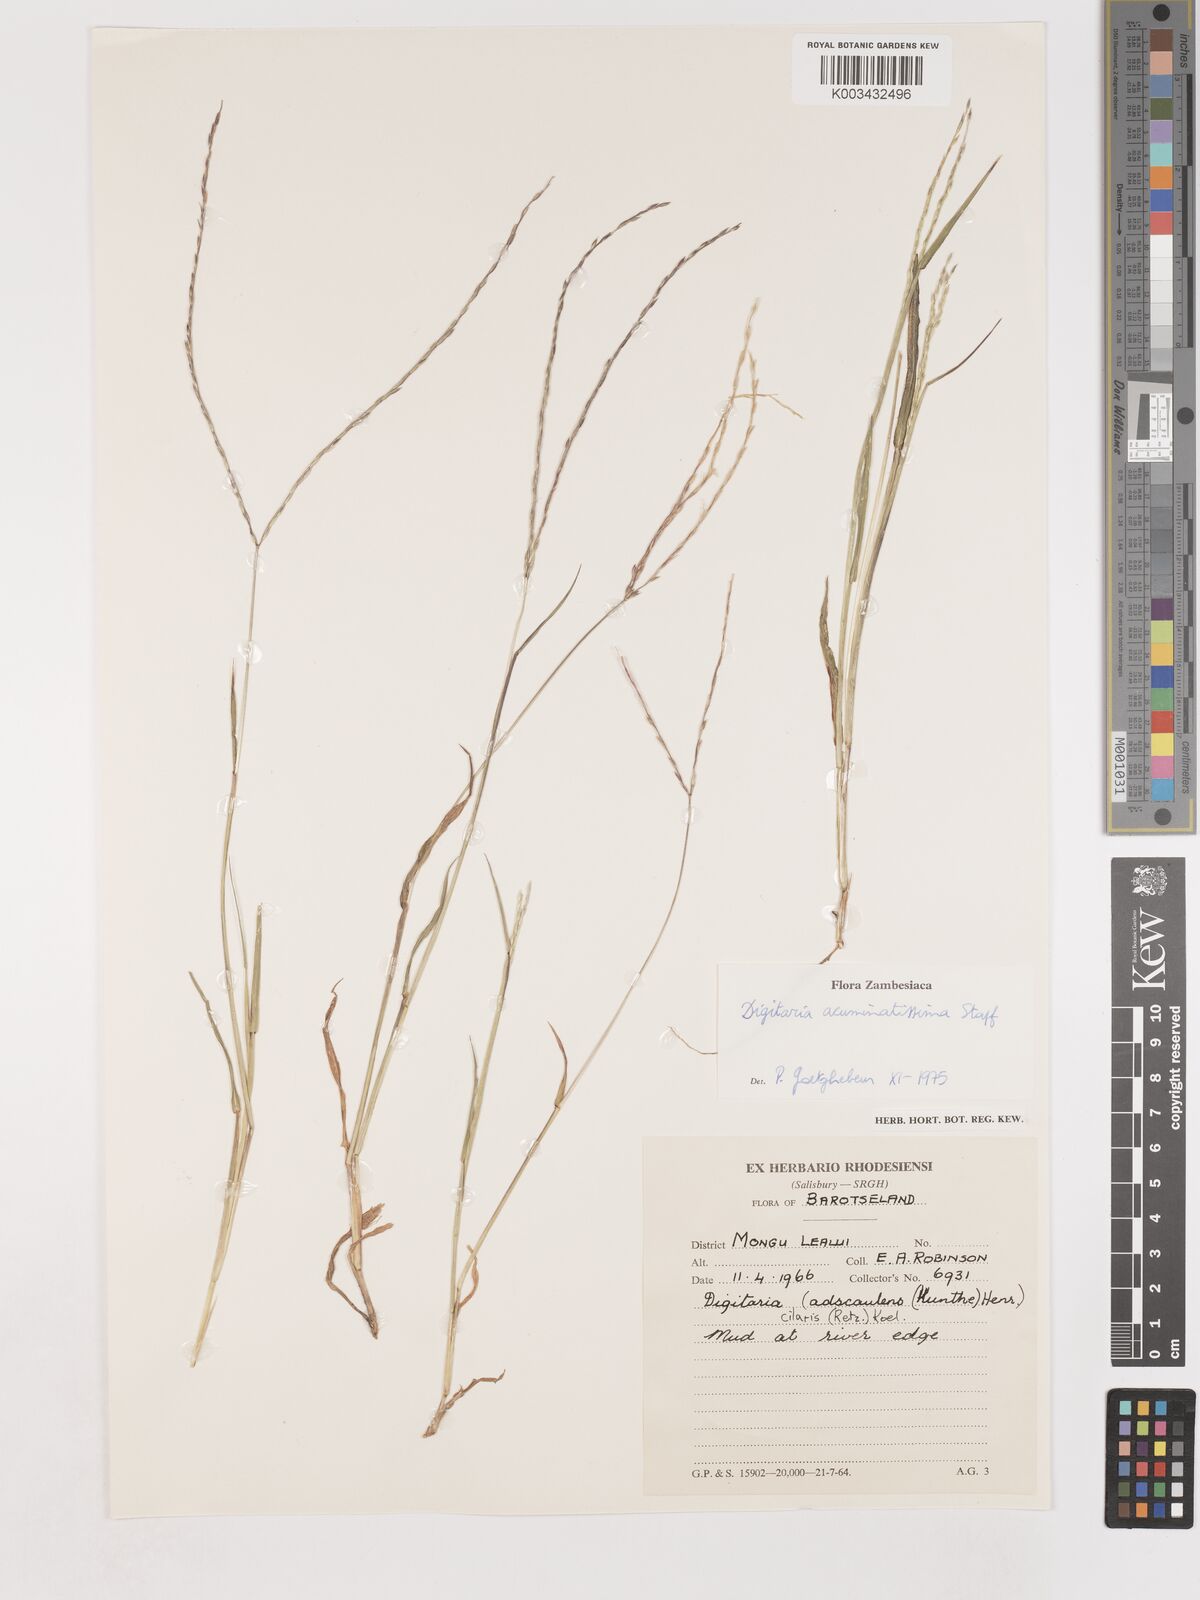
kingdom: Plantae
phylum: Tracheophyta
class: Liliopsida
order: Poales
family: Poaceae
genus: Digitaria
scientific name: Digitaria acuminatissima
